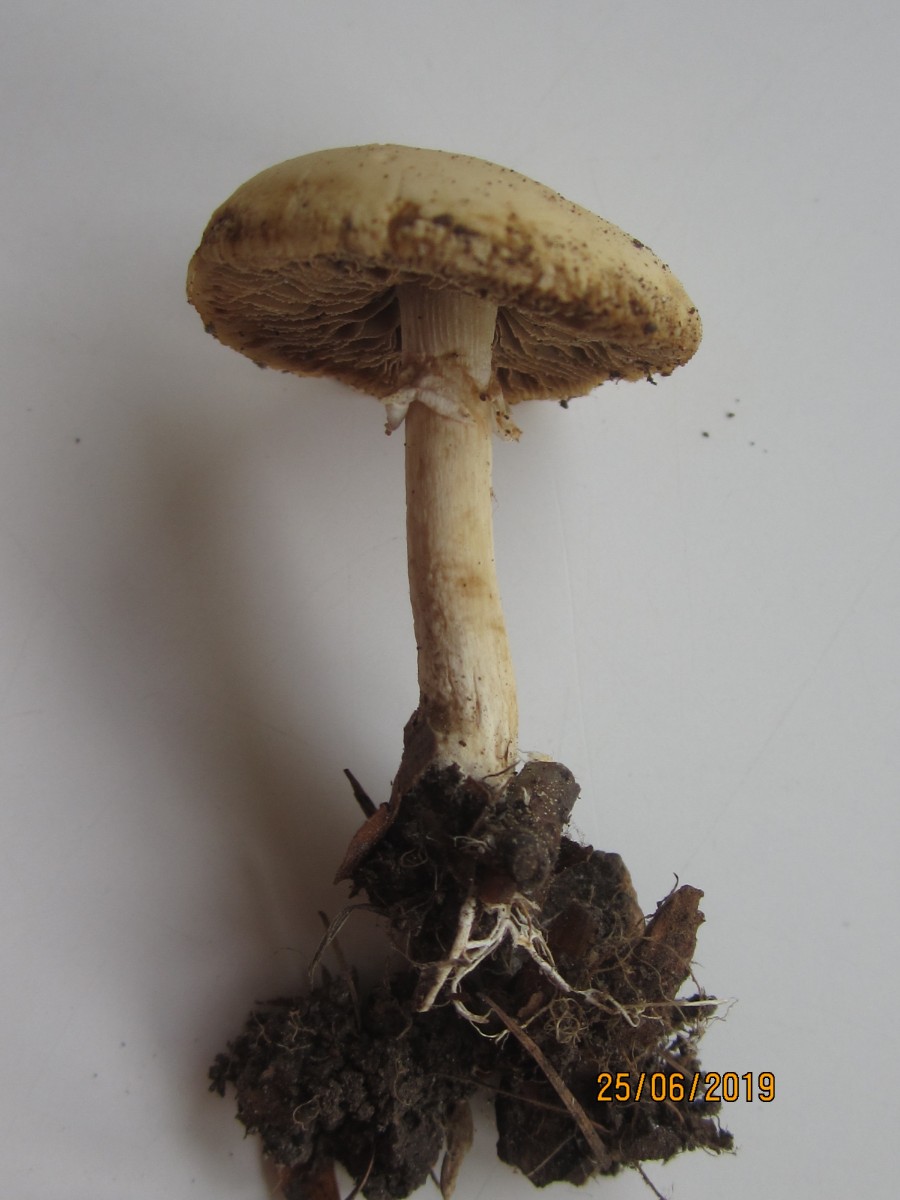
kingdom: Fungi
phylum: Basidiomycota
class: Agaricomycetes
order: Agaricales
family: Strophariaceae
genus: Agrocybe
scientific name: Agrocybe praecox
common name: tidlig agerhat
